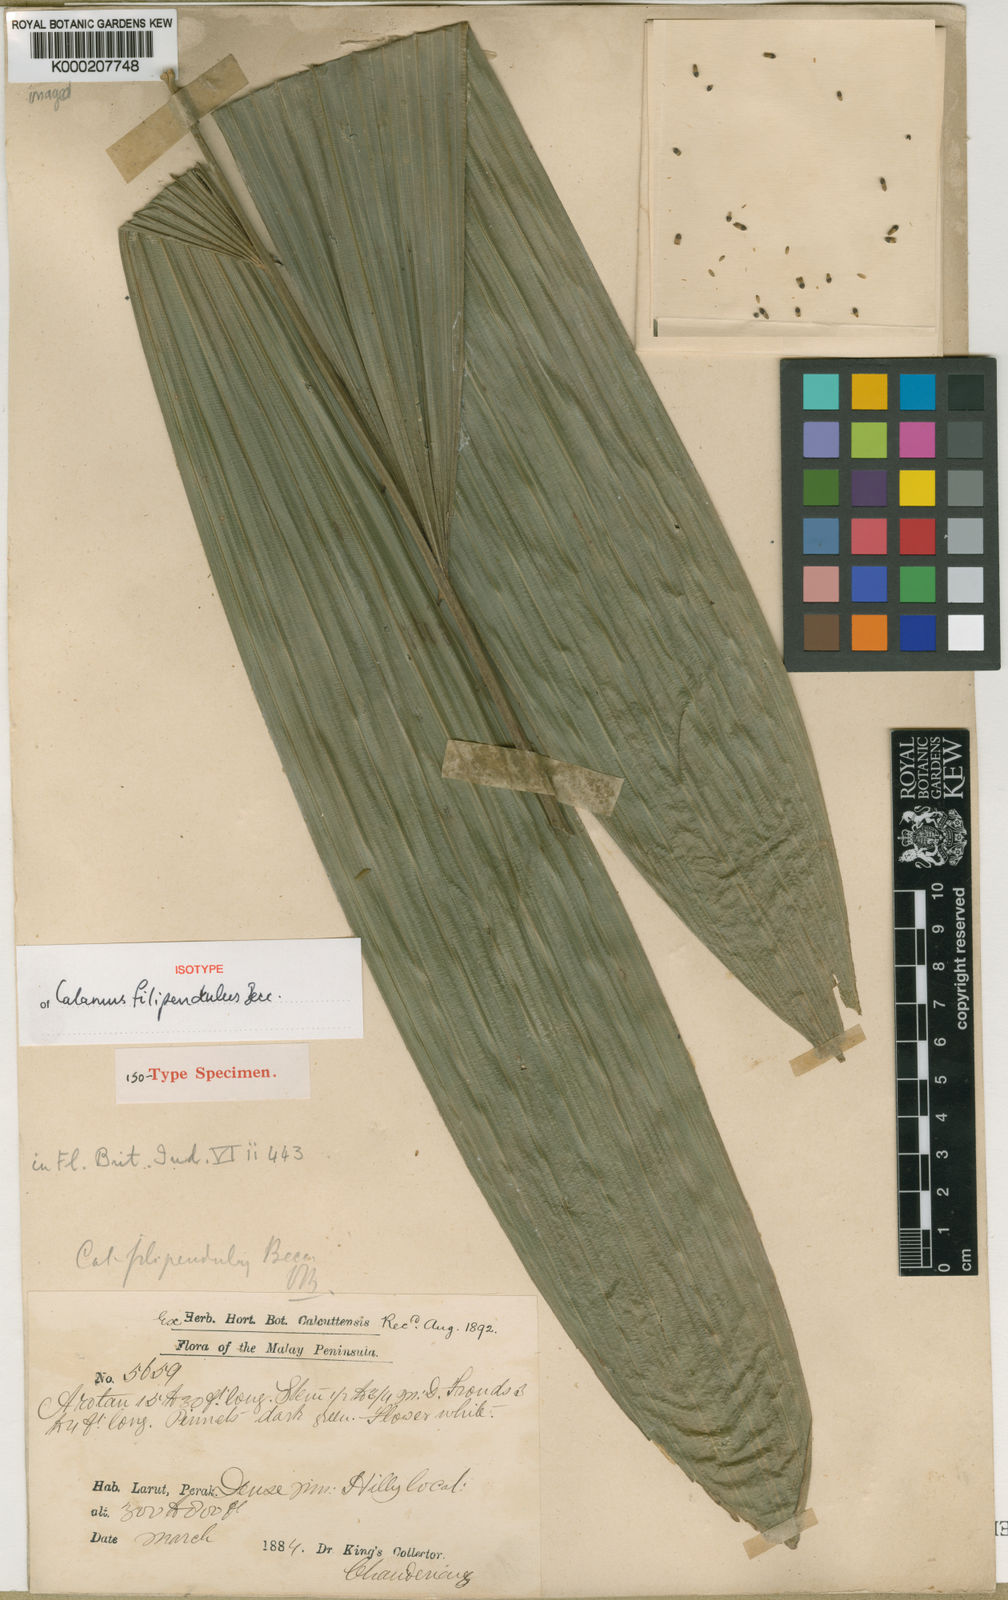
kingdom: Plantae
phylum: Tracheophyta
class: Liliopsida
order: Arecales
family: Arecaceae
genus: Calamus
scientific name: Calamus filipendulus
